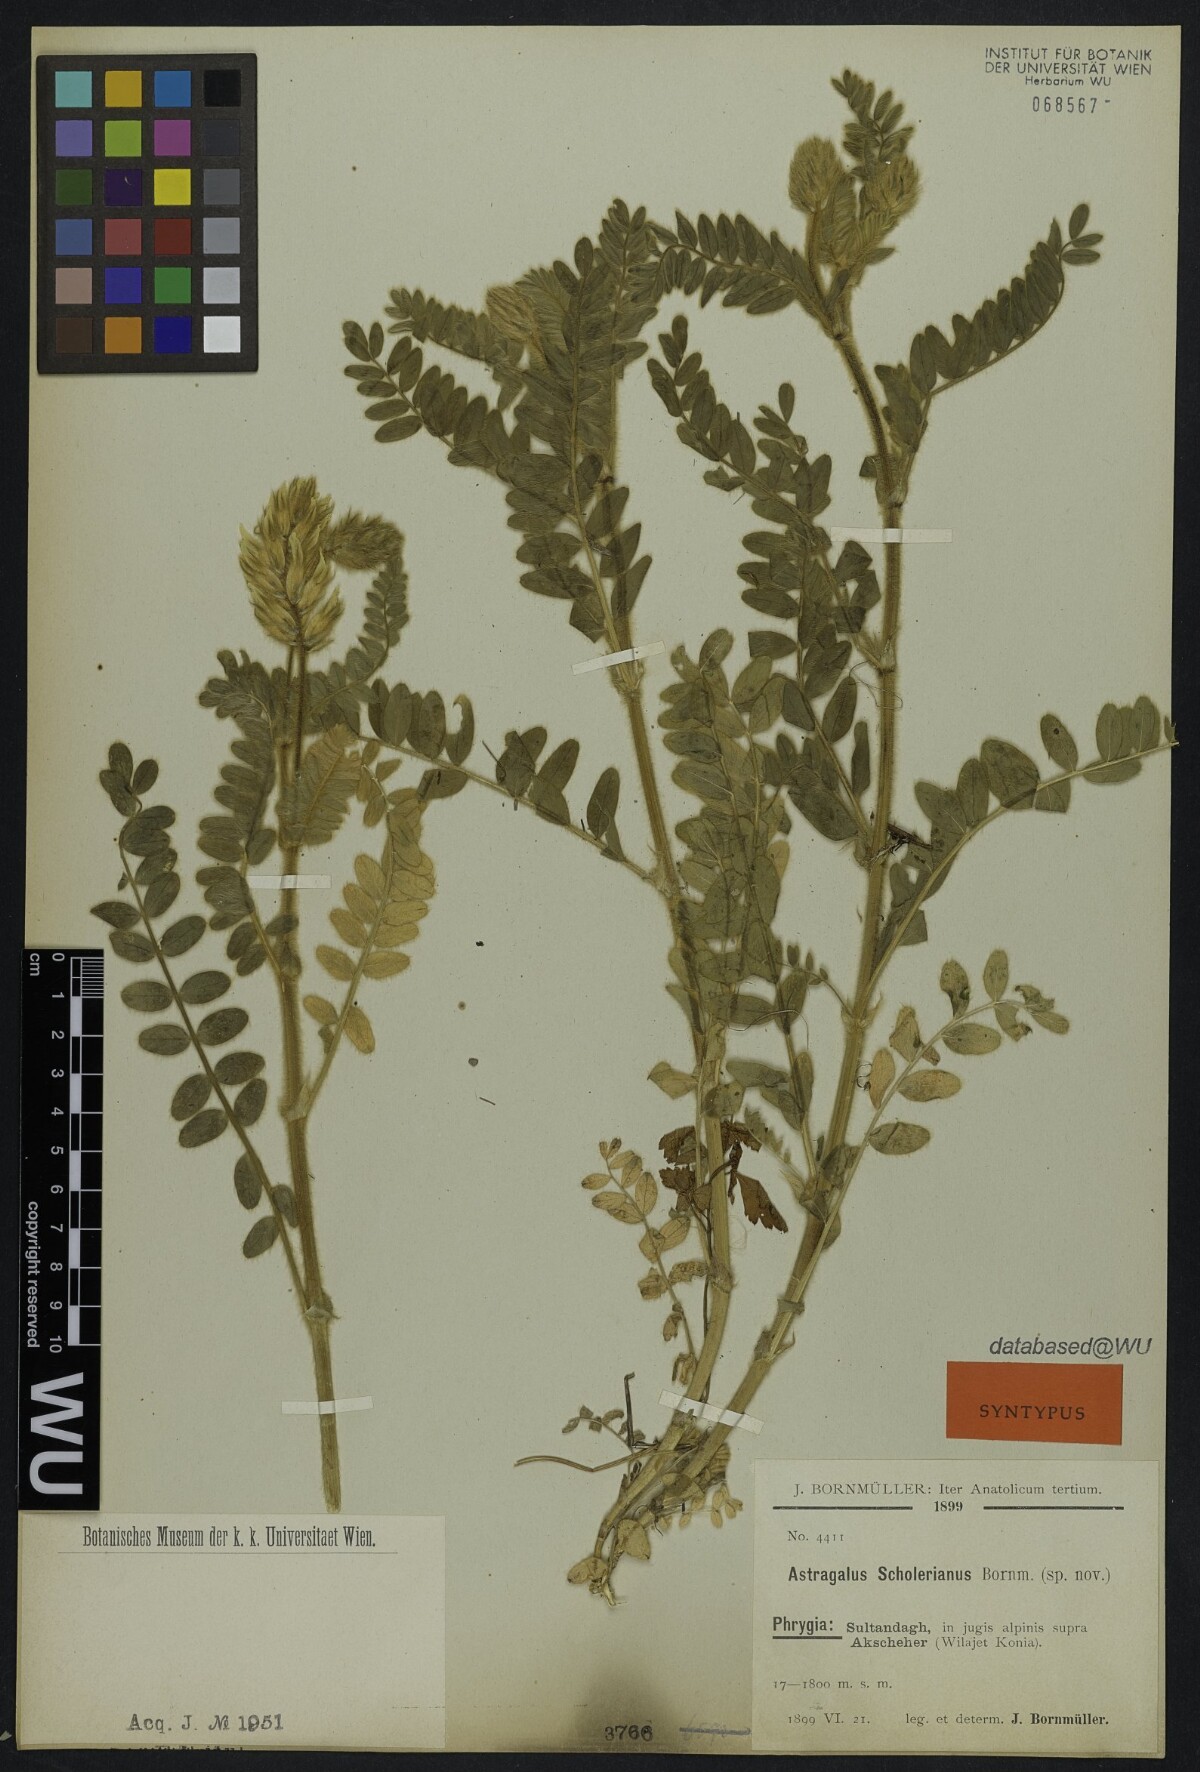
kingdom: Plantae
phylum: Tracheophyta
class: Magnoliopsida
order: Fabales
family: Fabaceae
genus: Astragalus
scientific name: Astragalus scholerianus
